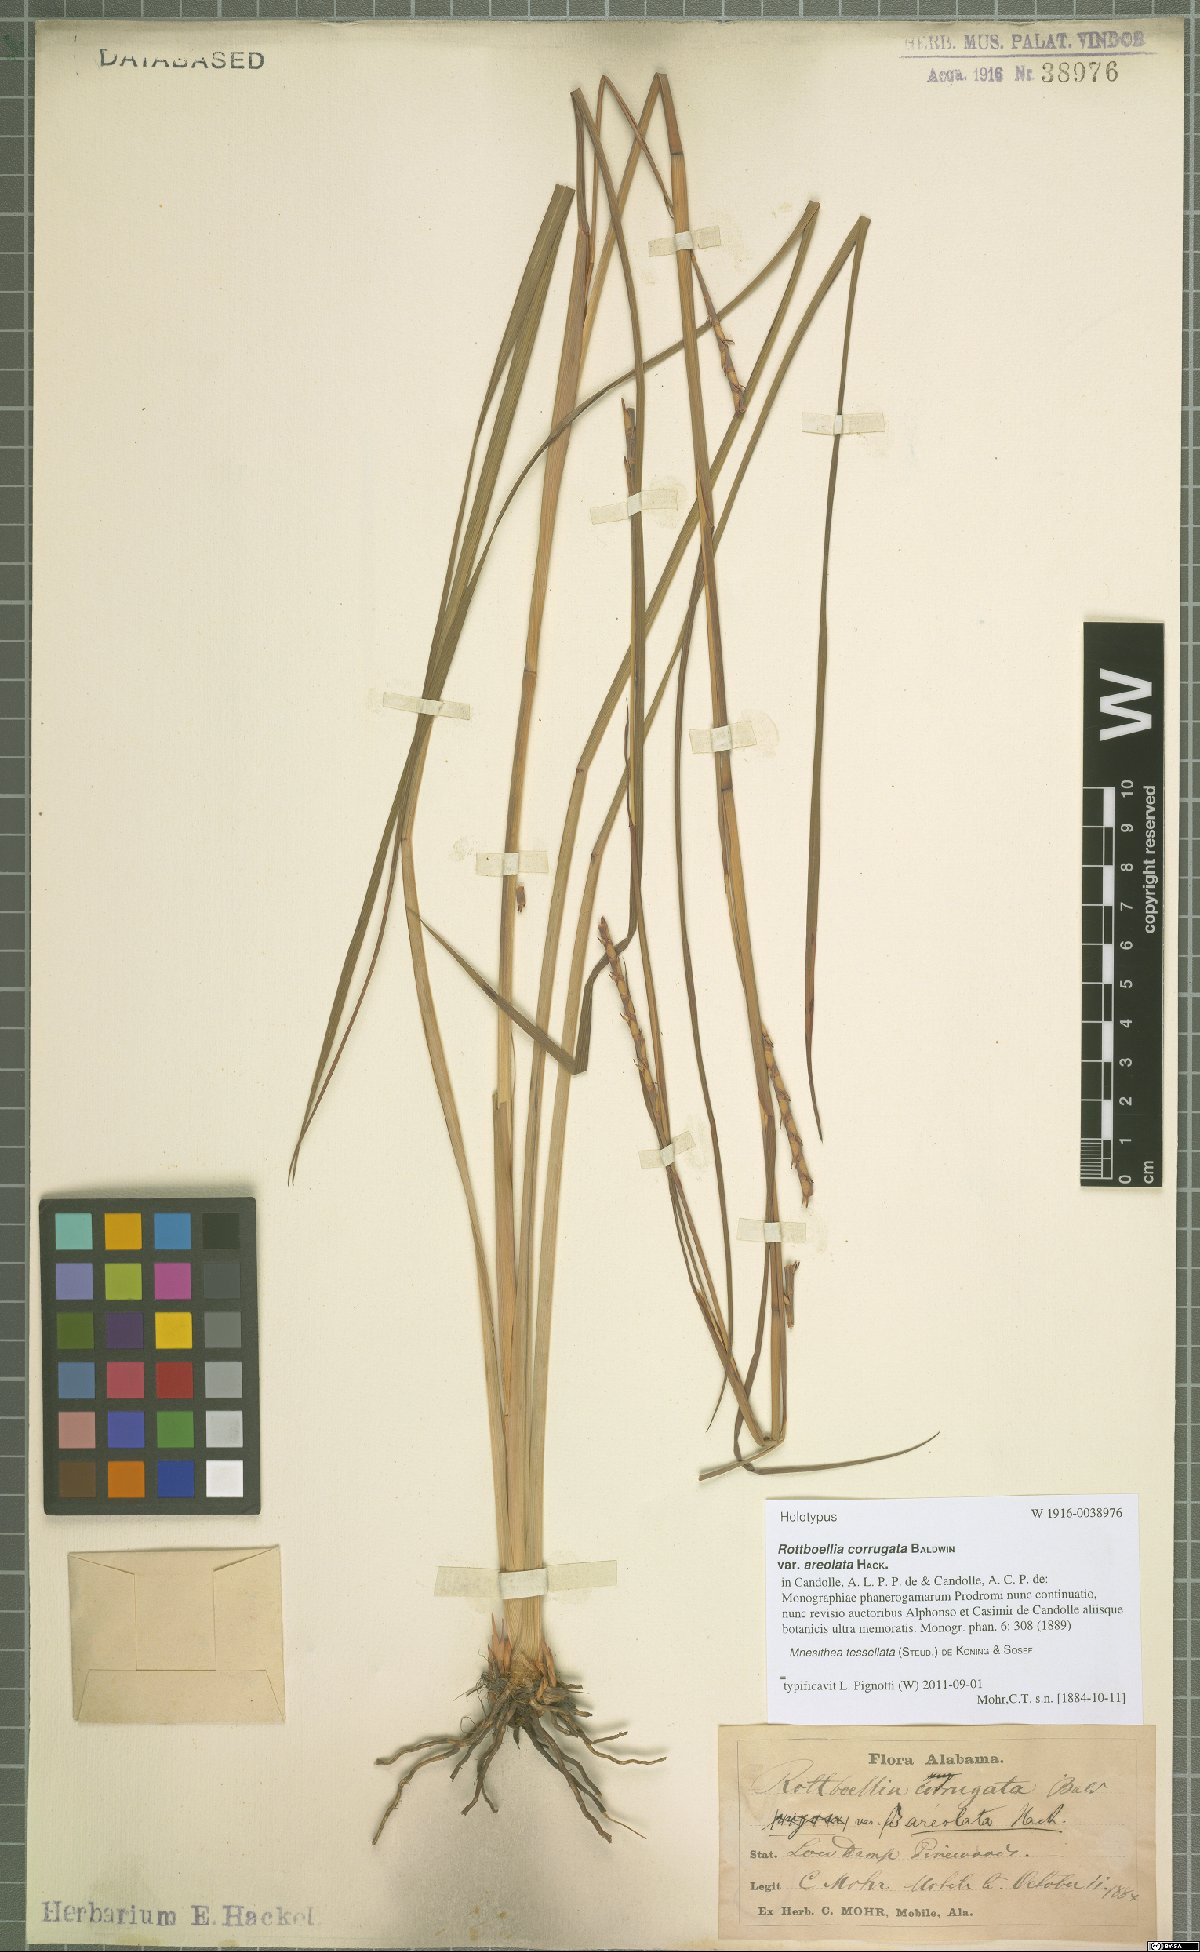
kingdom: Plantae
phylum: Tracheophyta
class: Liliopsida
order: Poales
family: Poaceae
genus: Rottboellia
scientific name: Rottboellia tessellata
